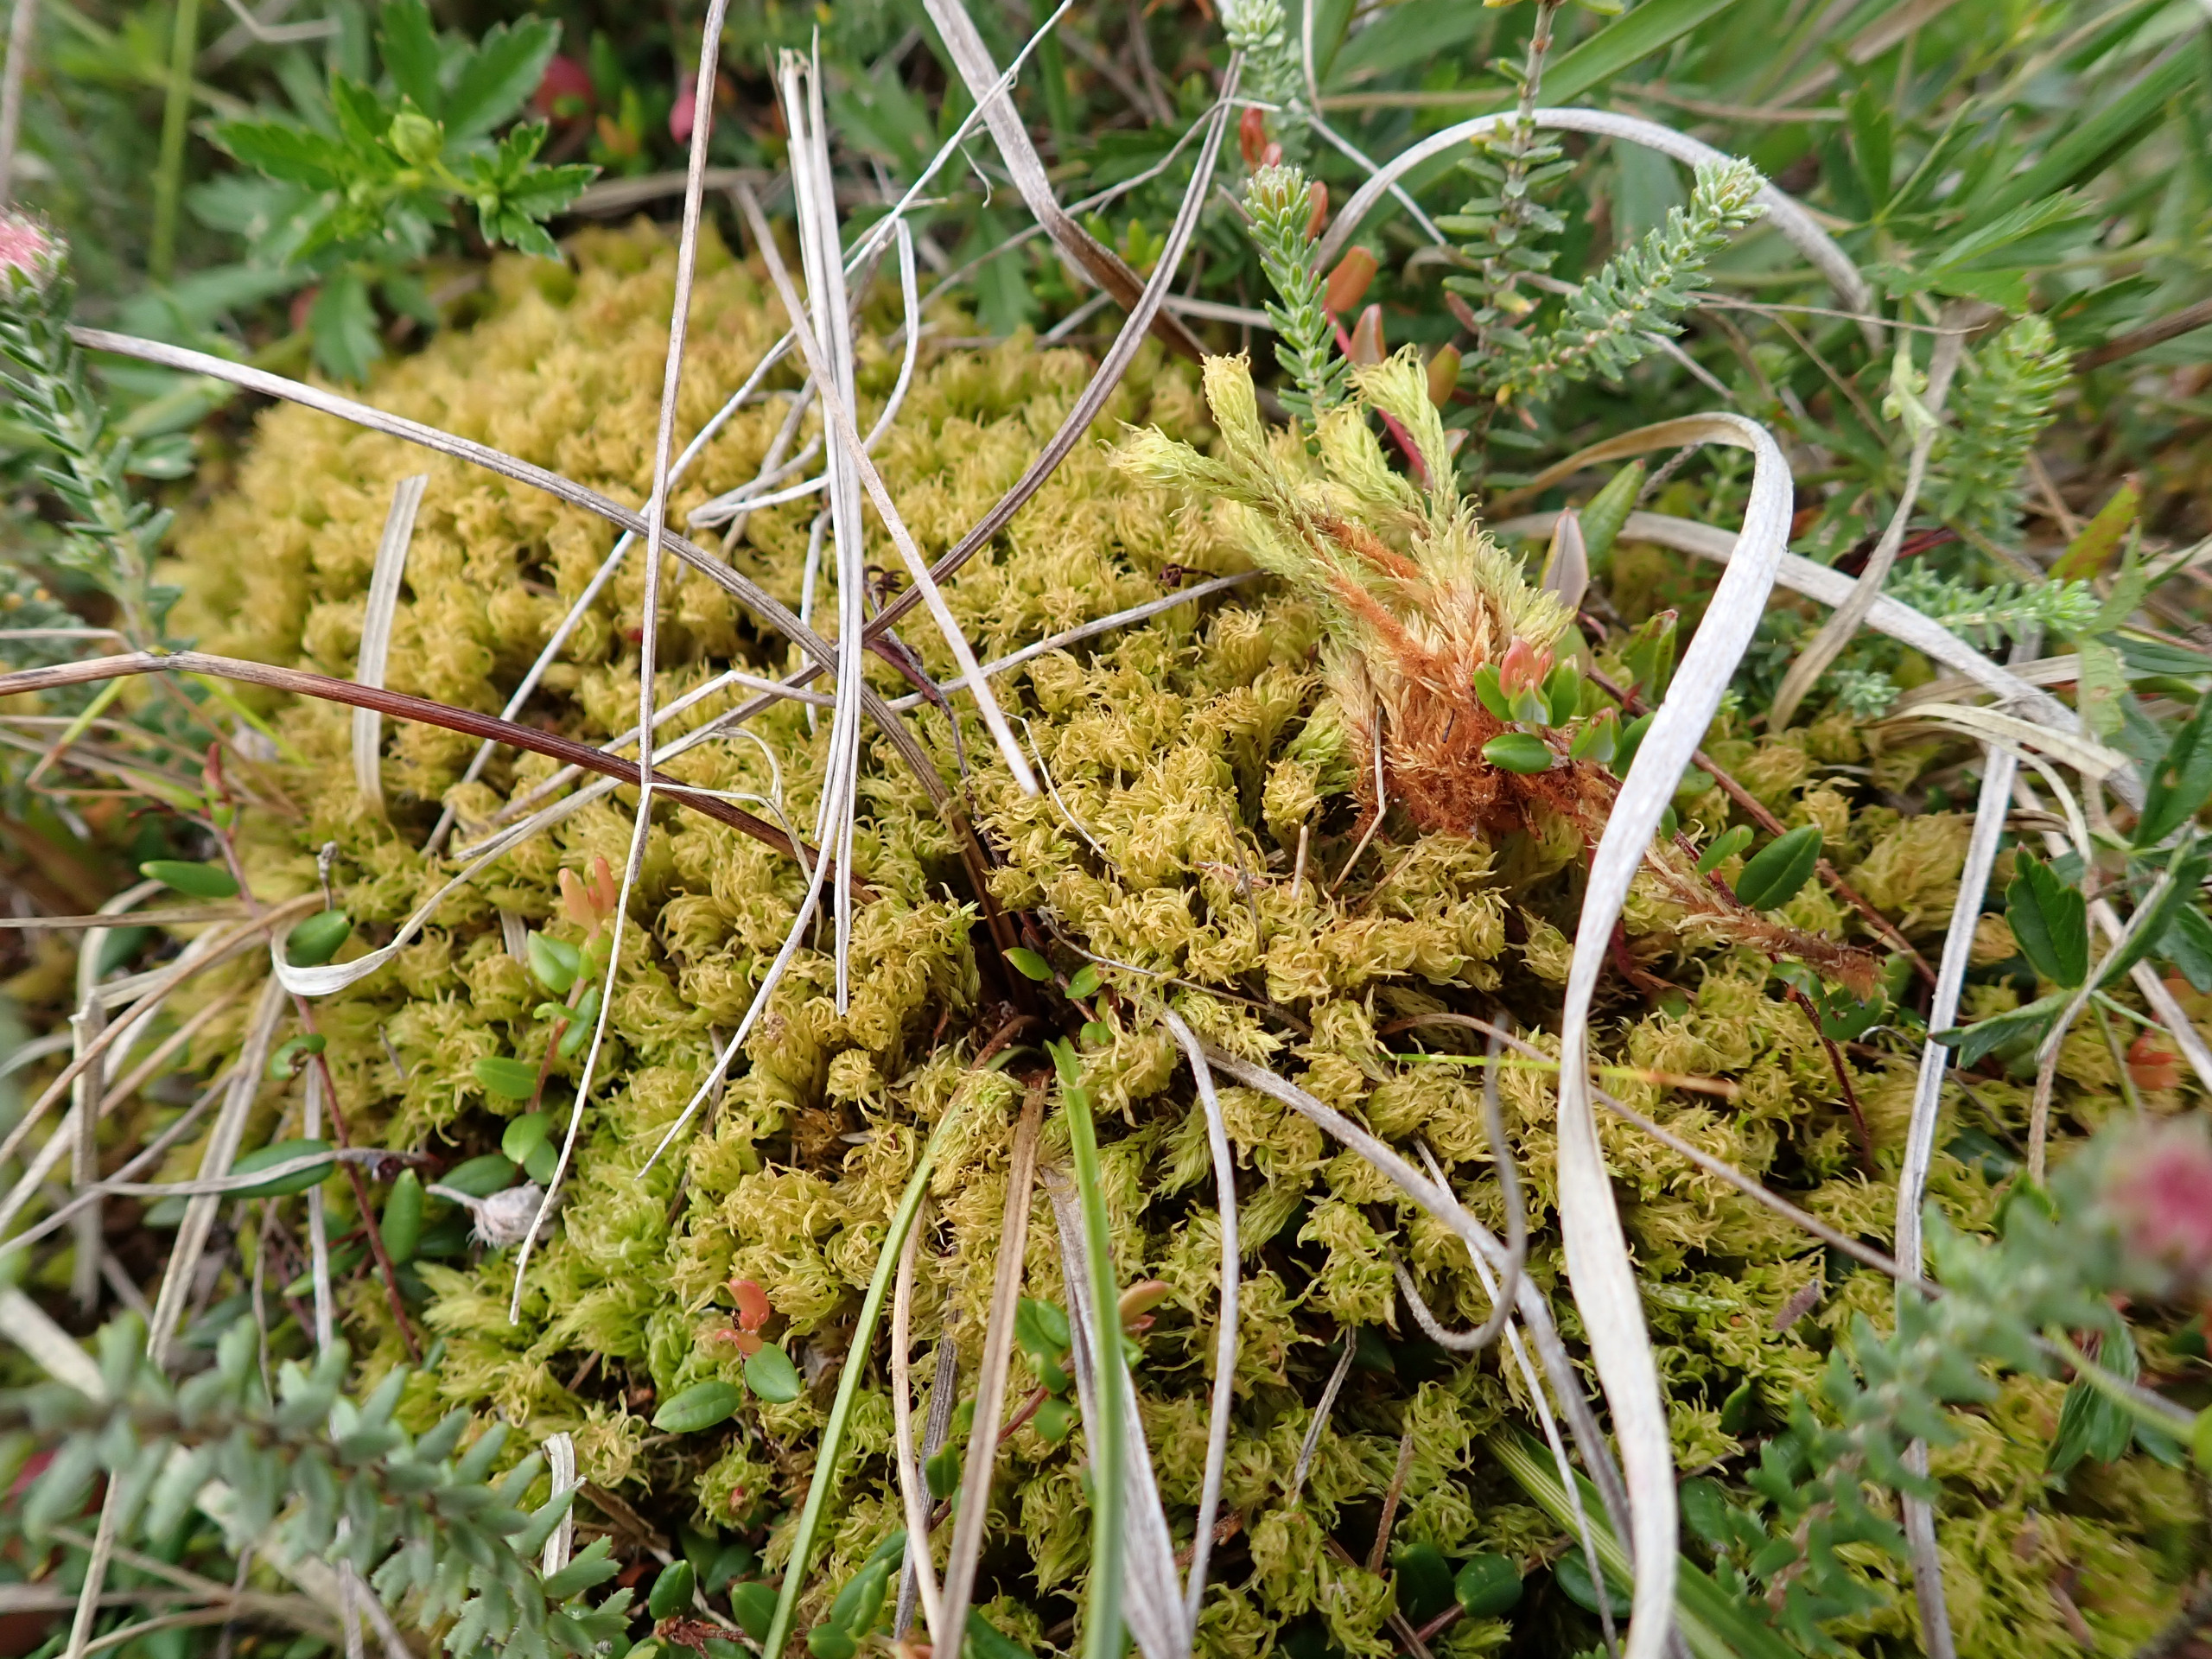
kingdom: Plantae
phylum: Bryophyta
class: Bryopsida
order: Aulacomniales
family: Aulacomniaceae
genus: Aulacomnium
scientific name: Aulacomnium palustre
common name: Almindelig filtmos
